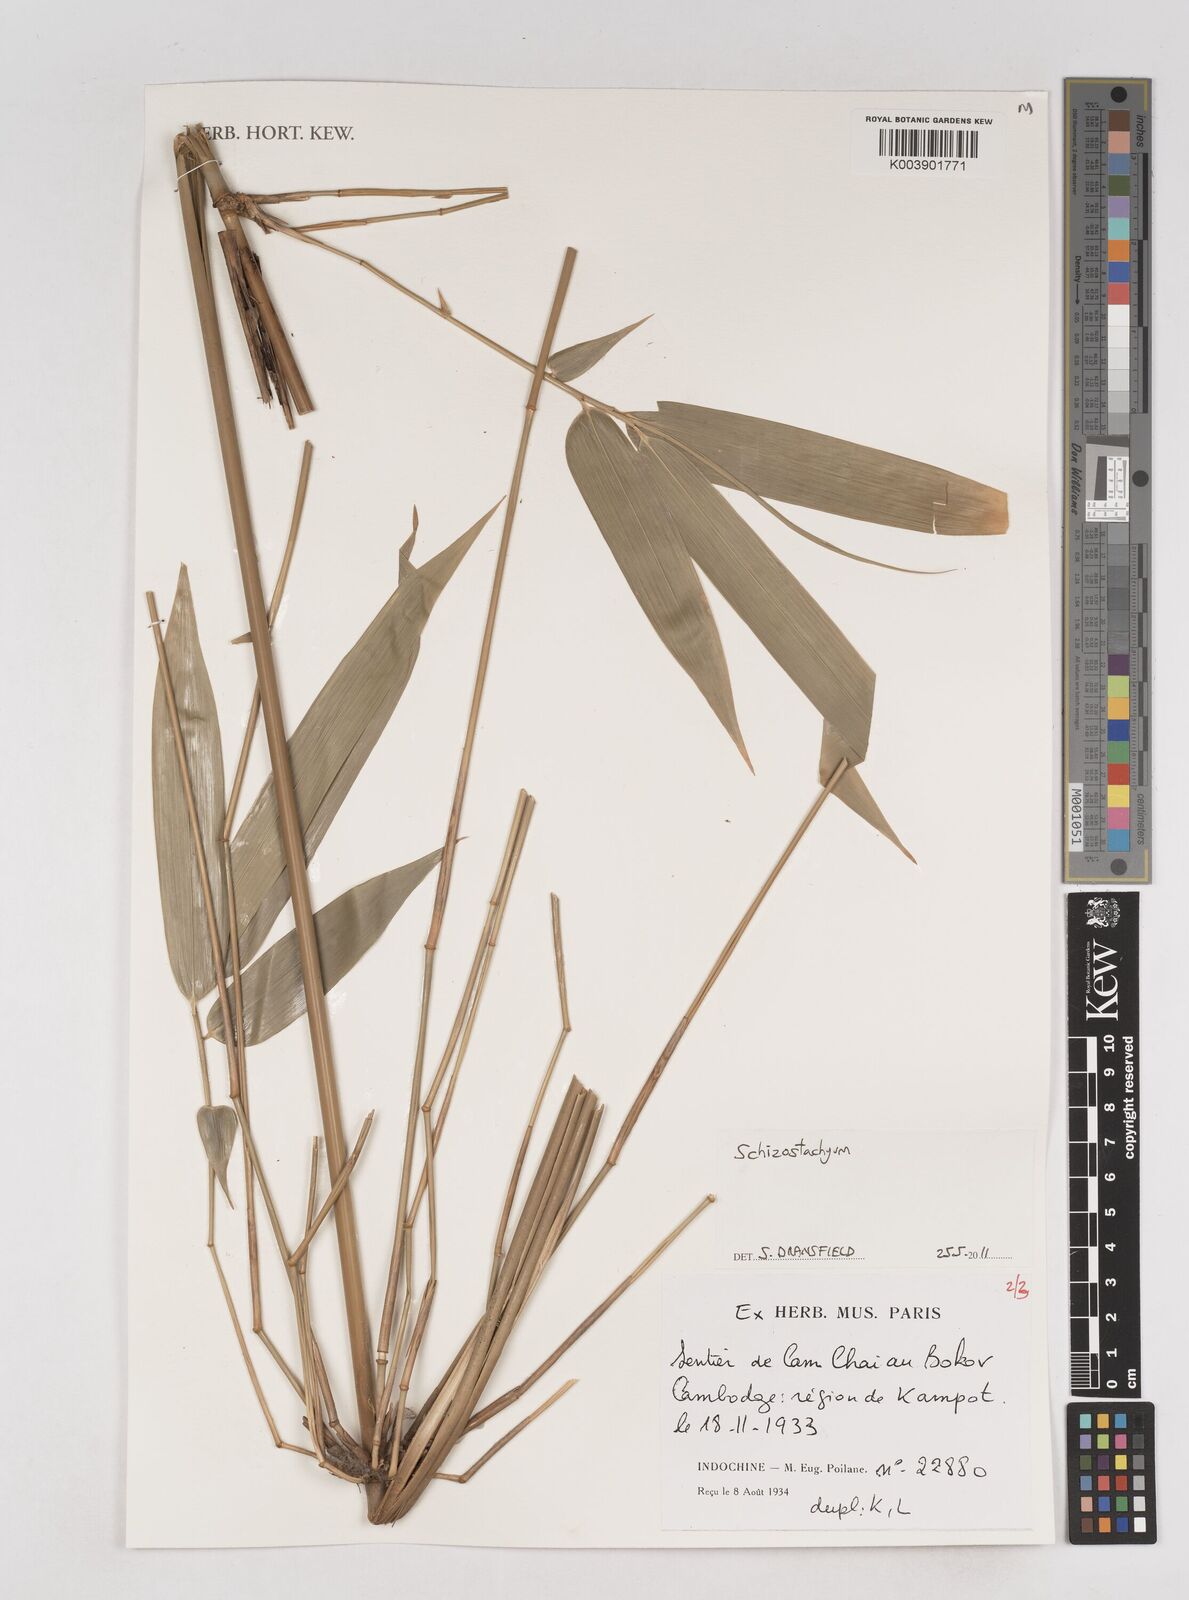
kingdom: Plantae
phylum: Tracheophyta
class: Liliopsida
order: Poales
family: Poaceae
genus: Schizostachyum
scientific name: Schizostachyum
